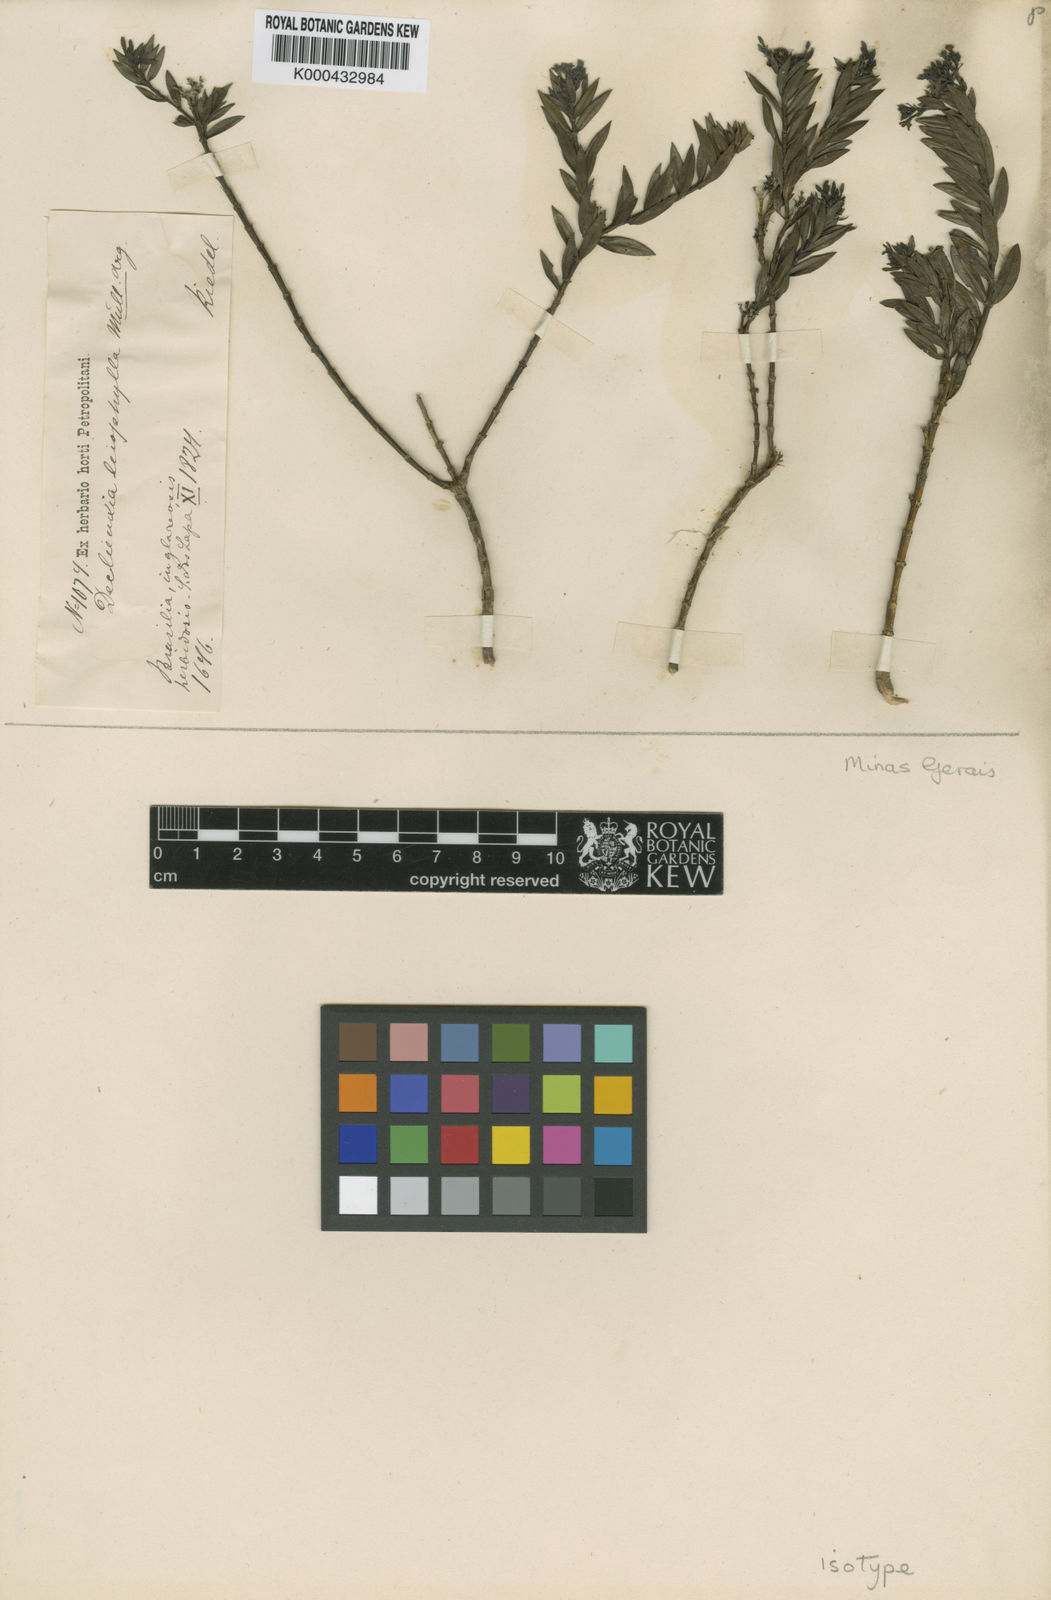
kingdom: Plantae
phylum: Tracheophyta
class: Magnoliopsida
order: Gentianales
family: Rubiaceae
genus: Declieuxia
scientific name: Declieuxia
